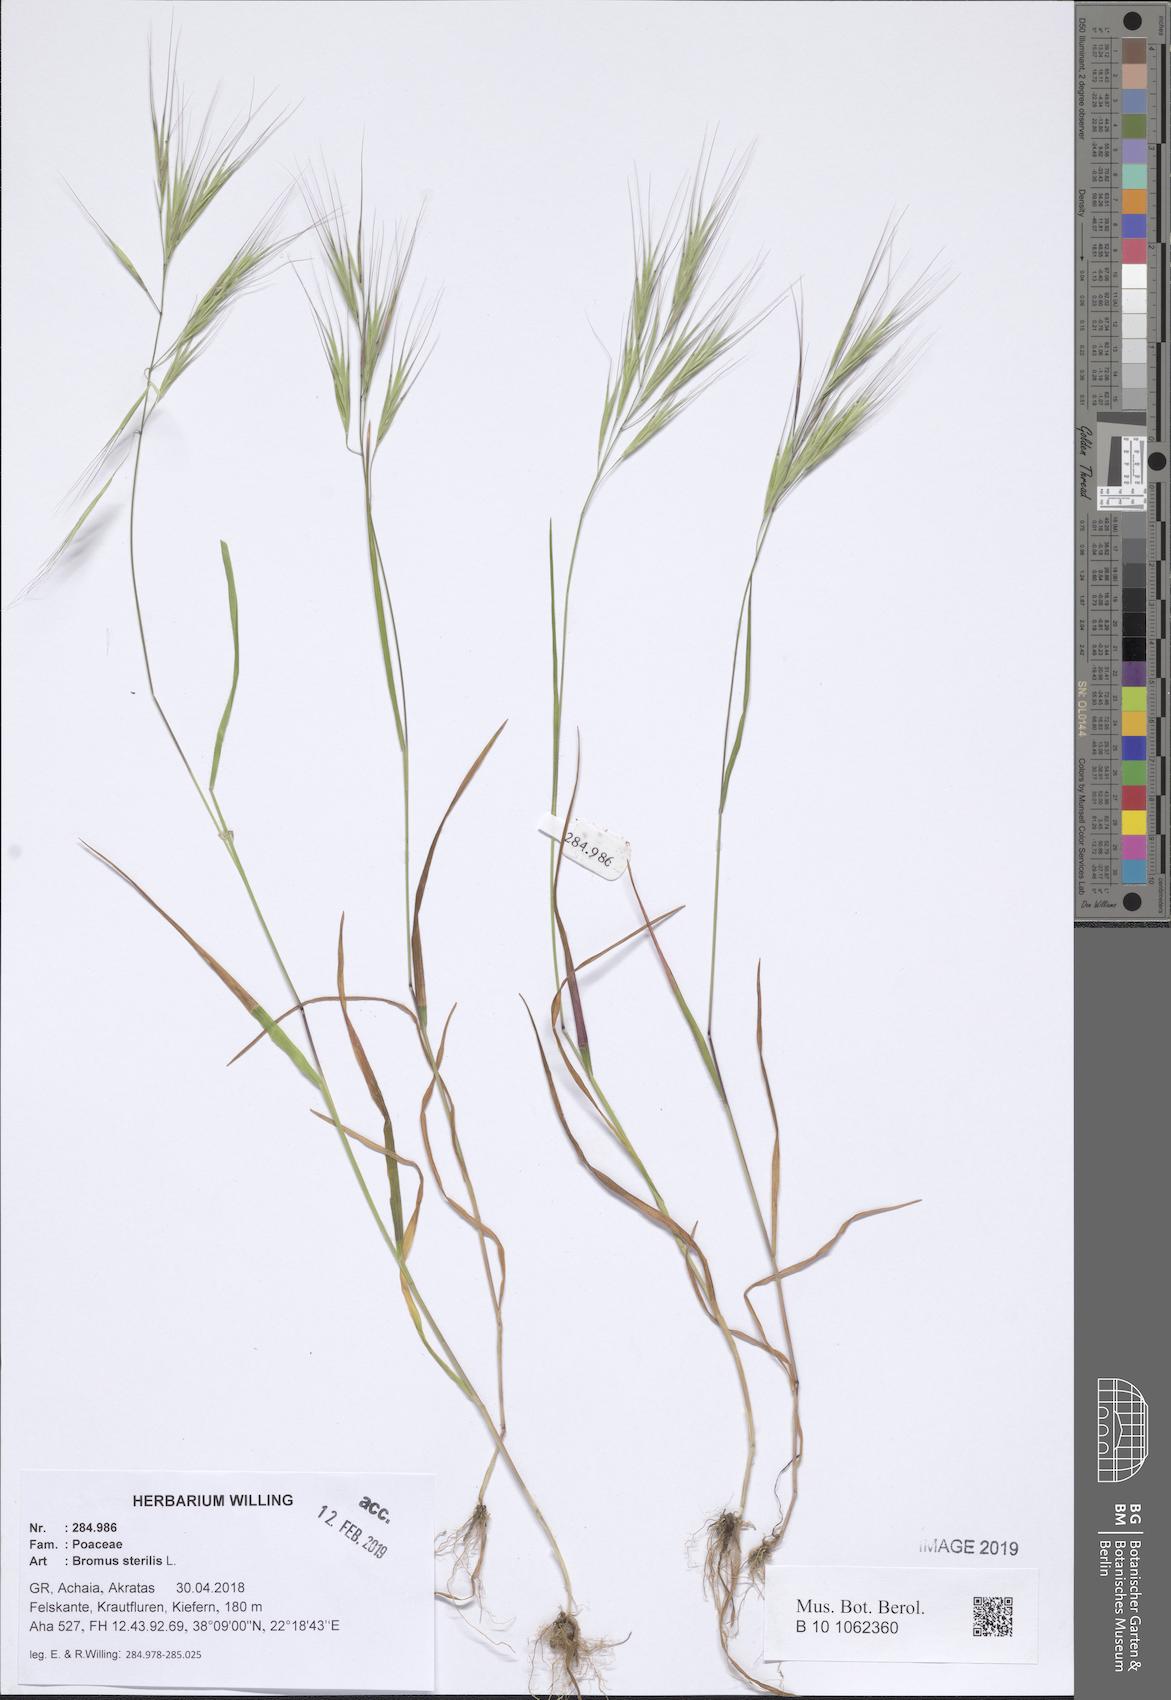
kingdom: Plantae
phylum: Tracheophyta
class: Liliopsida
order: Poales
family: Poaceae
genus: Bromus
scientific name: Bromus sterilis
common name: Poverty brome
